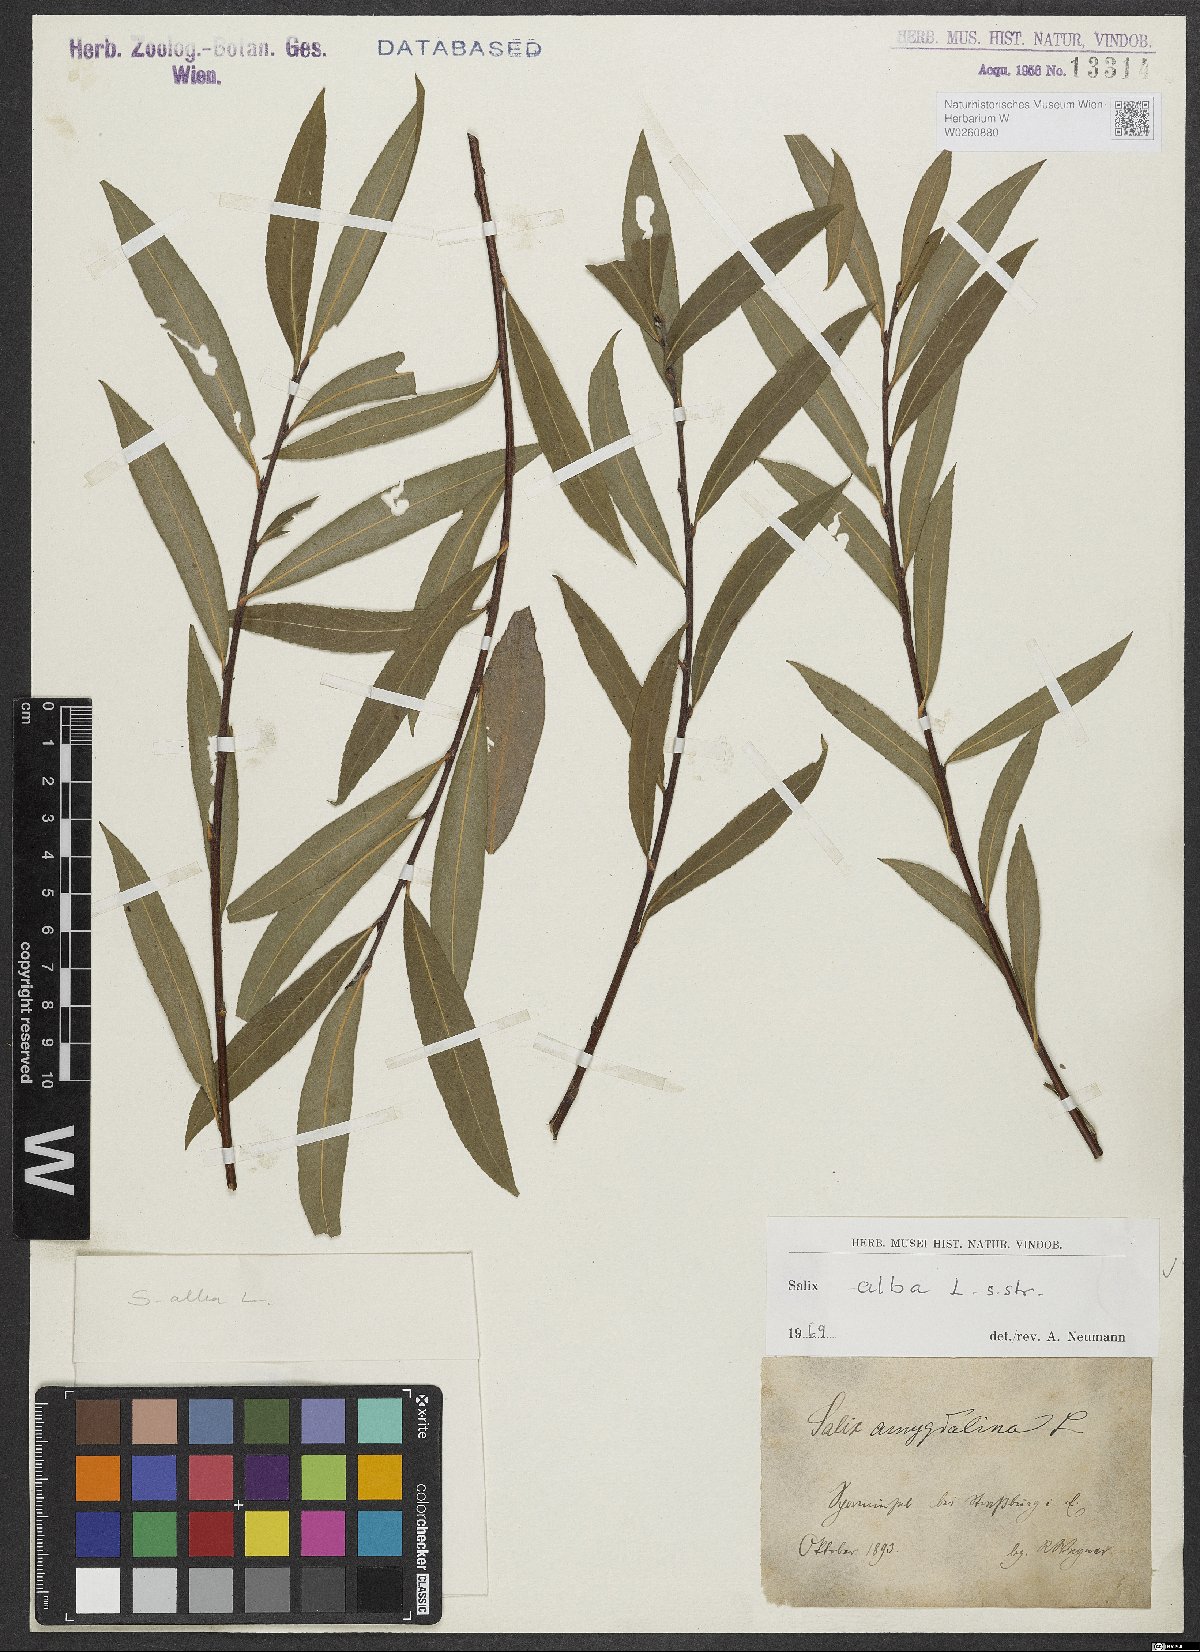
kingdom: Plantae
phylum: Tracheophyta
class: Magnoliopsida
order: Malpighiales
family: Salicaceae
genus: Salix
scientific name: Salix alba
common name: White willow
